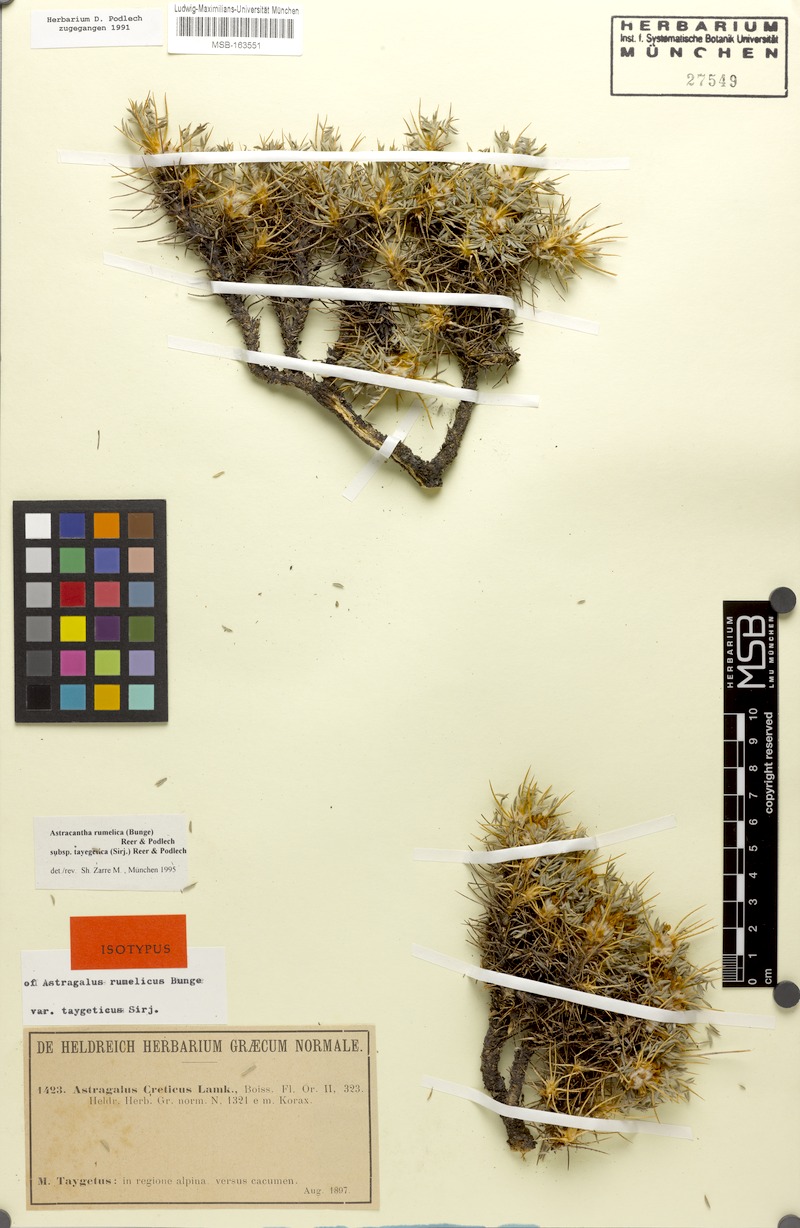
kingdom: Plantae
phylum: Tracheophyta
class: Magnoliopsida
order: Fabales
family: Fabaceae
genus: Astragalus
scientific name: Astragalus rumelicus
